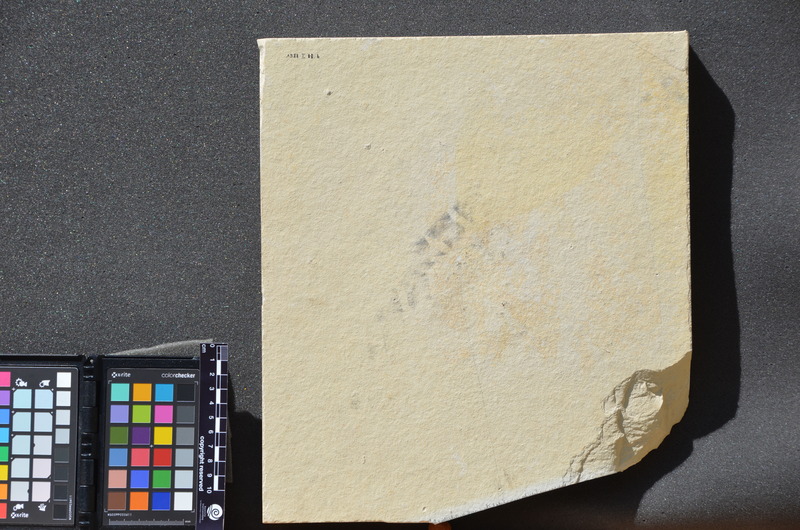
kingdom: Animalia
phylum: Chordata
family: Gyrodontidae
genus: Gyrodus
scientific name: Gyrodus hexagonus
